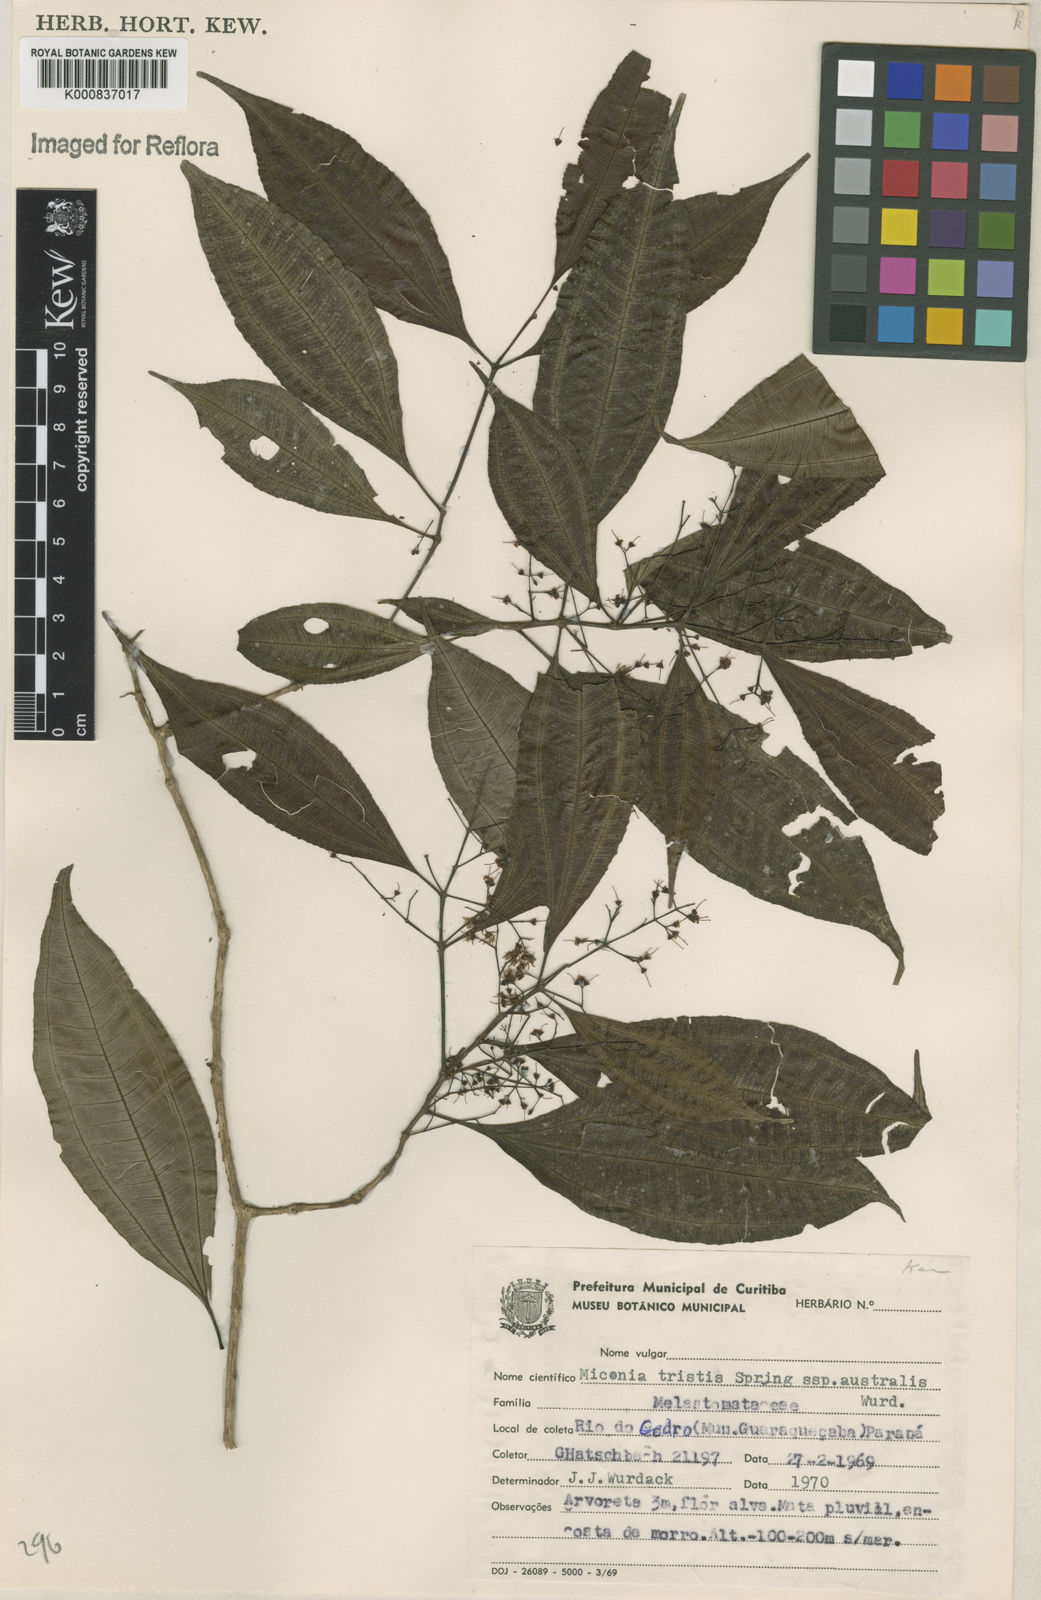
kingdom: Plantae
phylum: Tracheophyta
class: Magnoliopsida
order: Myrtales
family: Melastomataceae
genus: Miconia
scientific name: Miconia tristis
